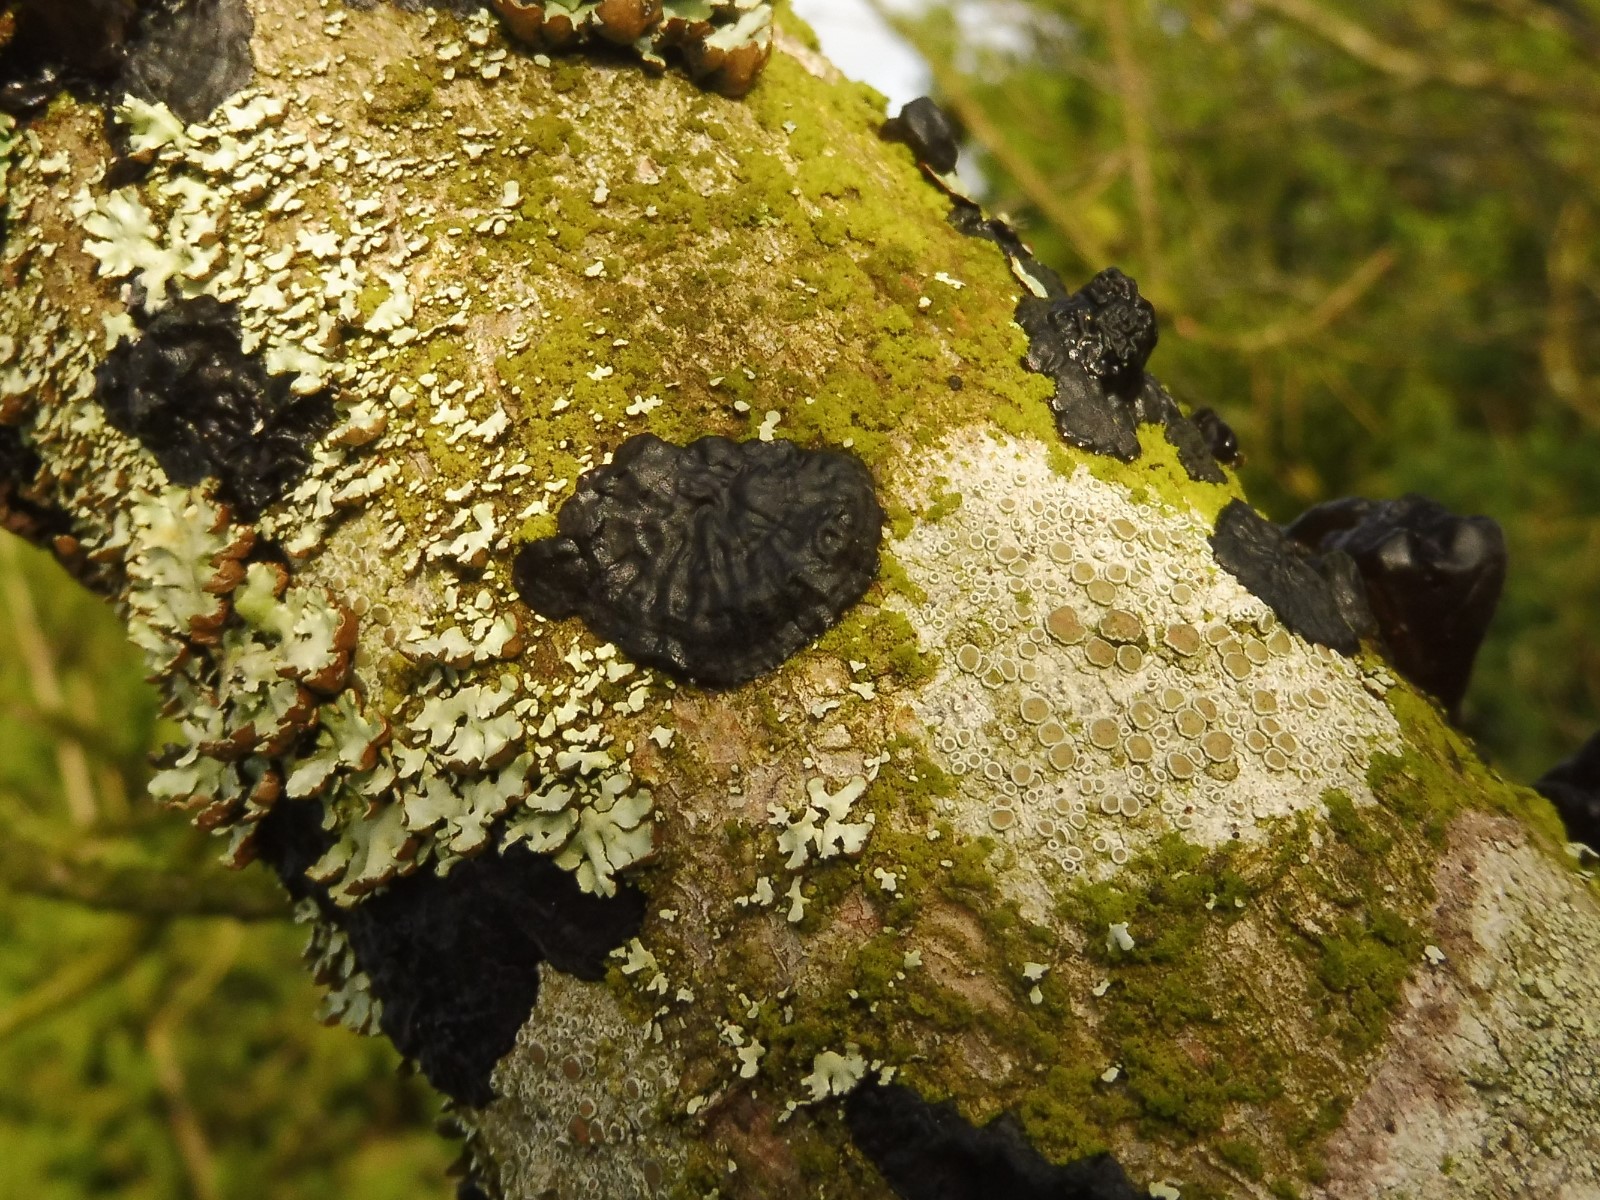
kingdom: Fungi
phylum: Basidiomycota
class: Agaricomycetes
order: Auriculariales
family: Auriculariaceae
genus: Exidia
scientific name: Exidia pithya
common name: gran-bævretop
